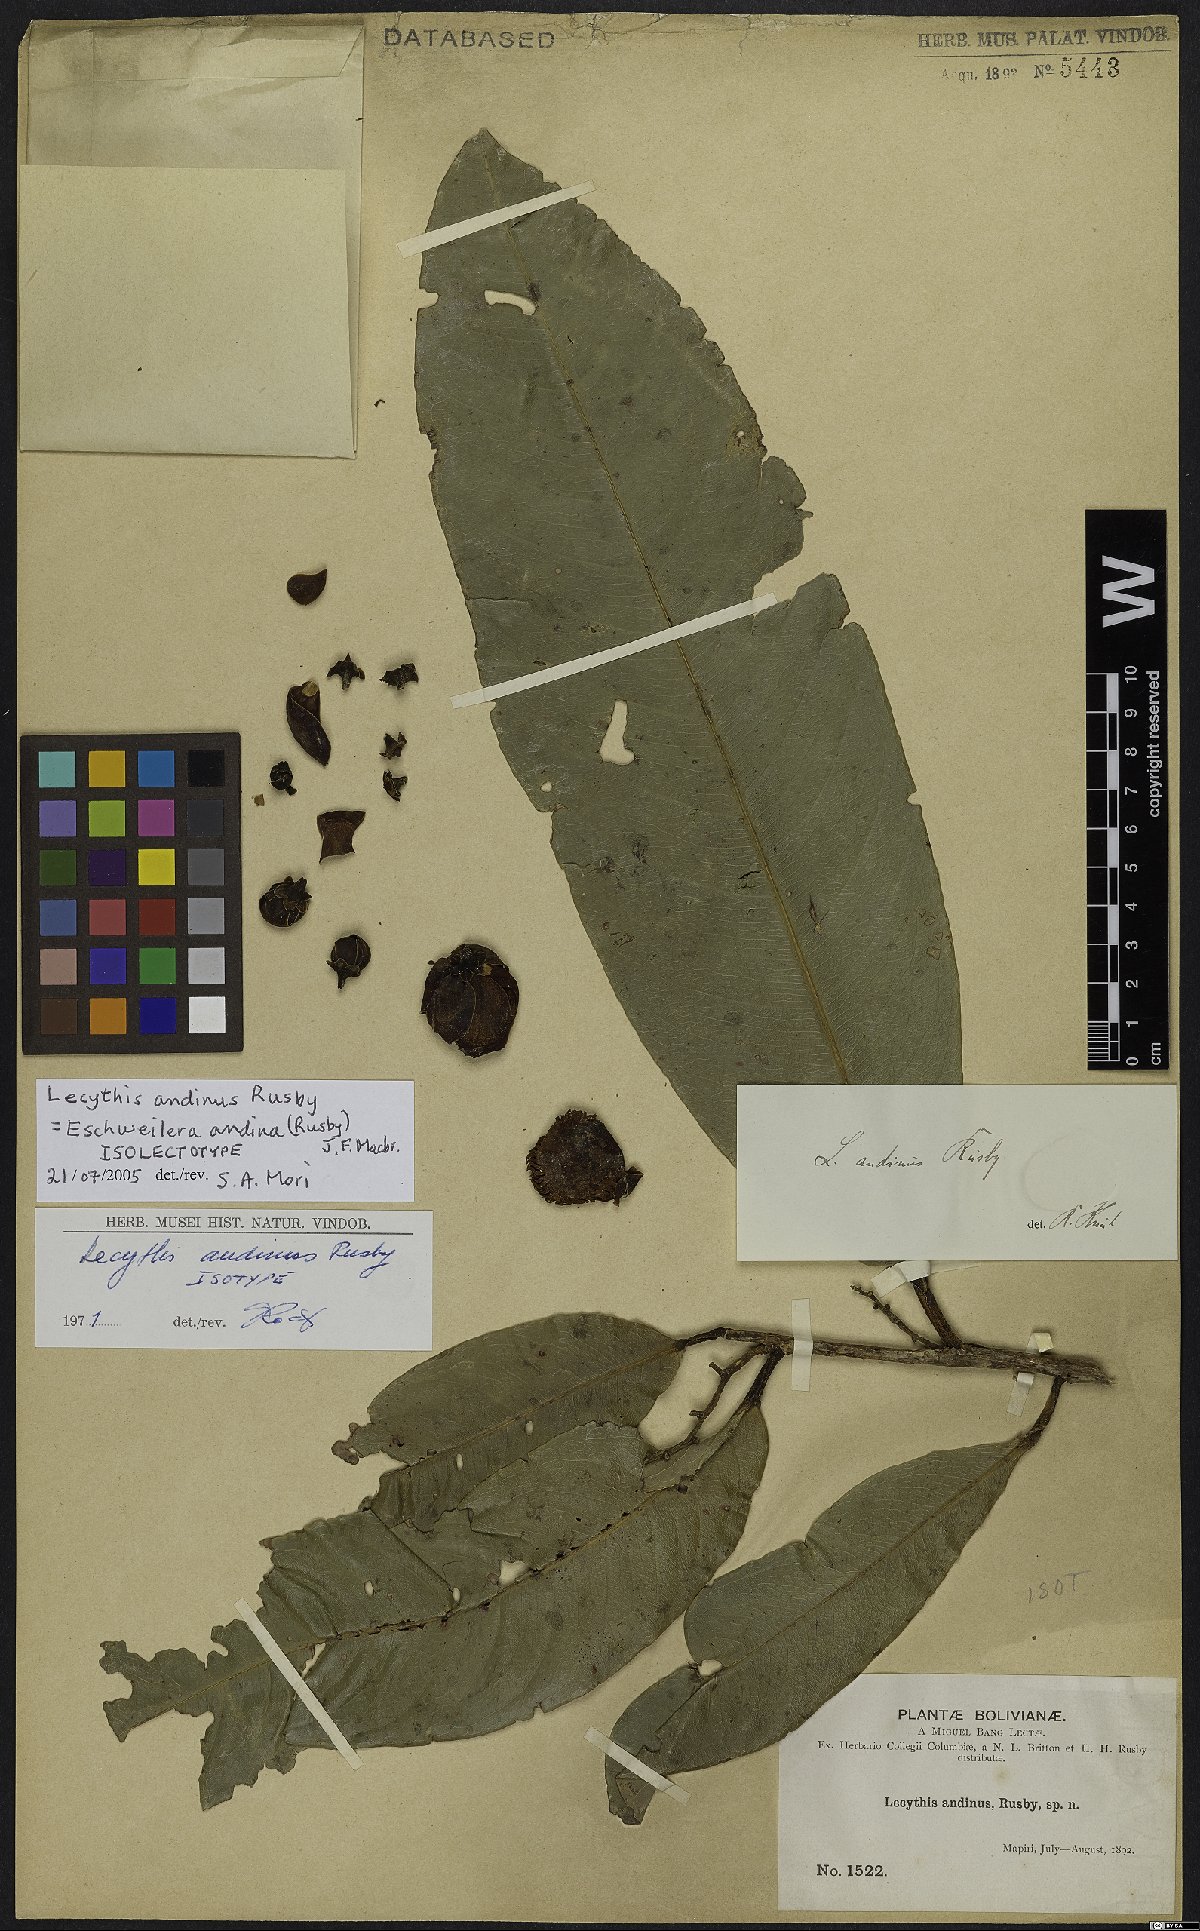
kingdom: Plantae
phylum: Tracheophyta
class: Magnoliopsida
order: Ericales
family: Lecythidaceae
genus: Eschweilera
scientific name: Eschweilera andina
